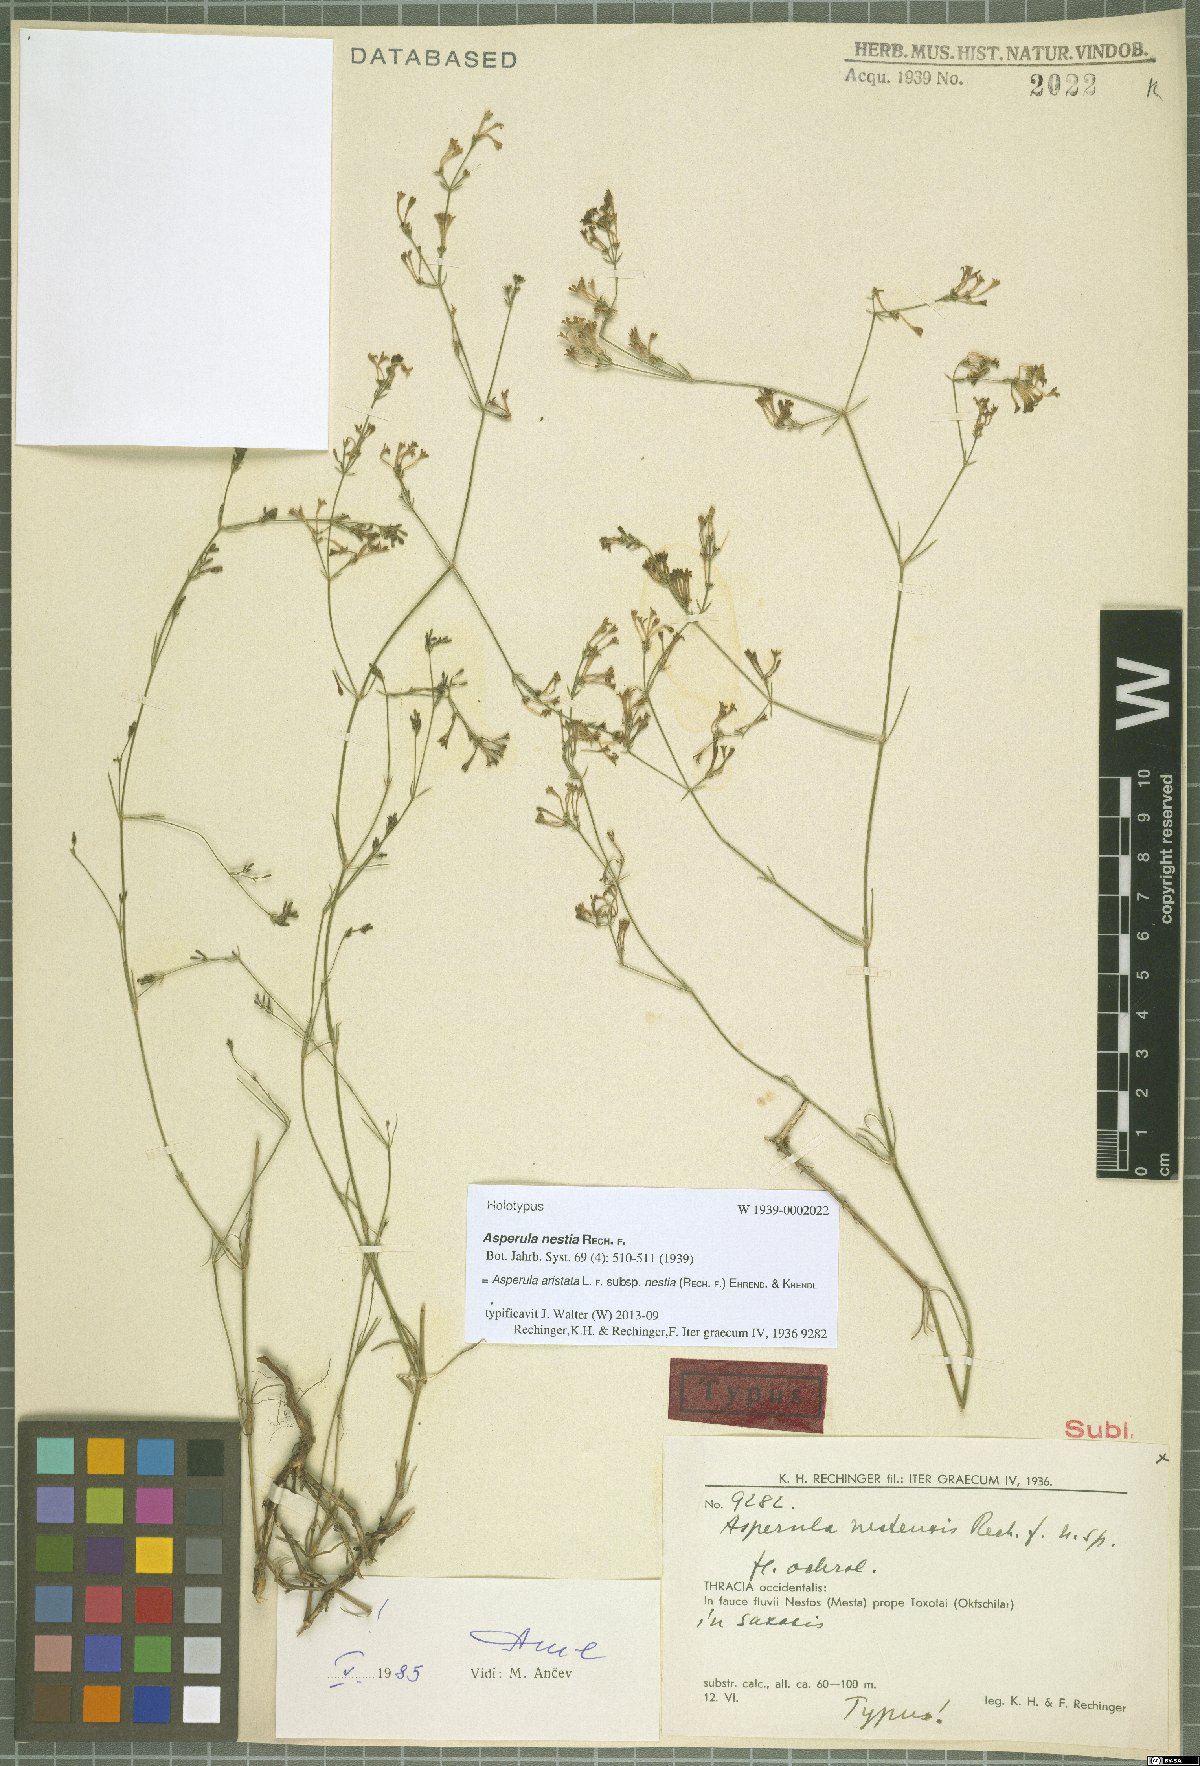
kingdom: Plantae
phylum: Tracheophyta
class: Magnoliopsida
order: Gentianales
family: Rubiaceae
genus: Cynanchica
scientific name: Cynanchica aristata
